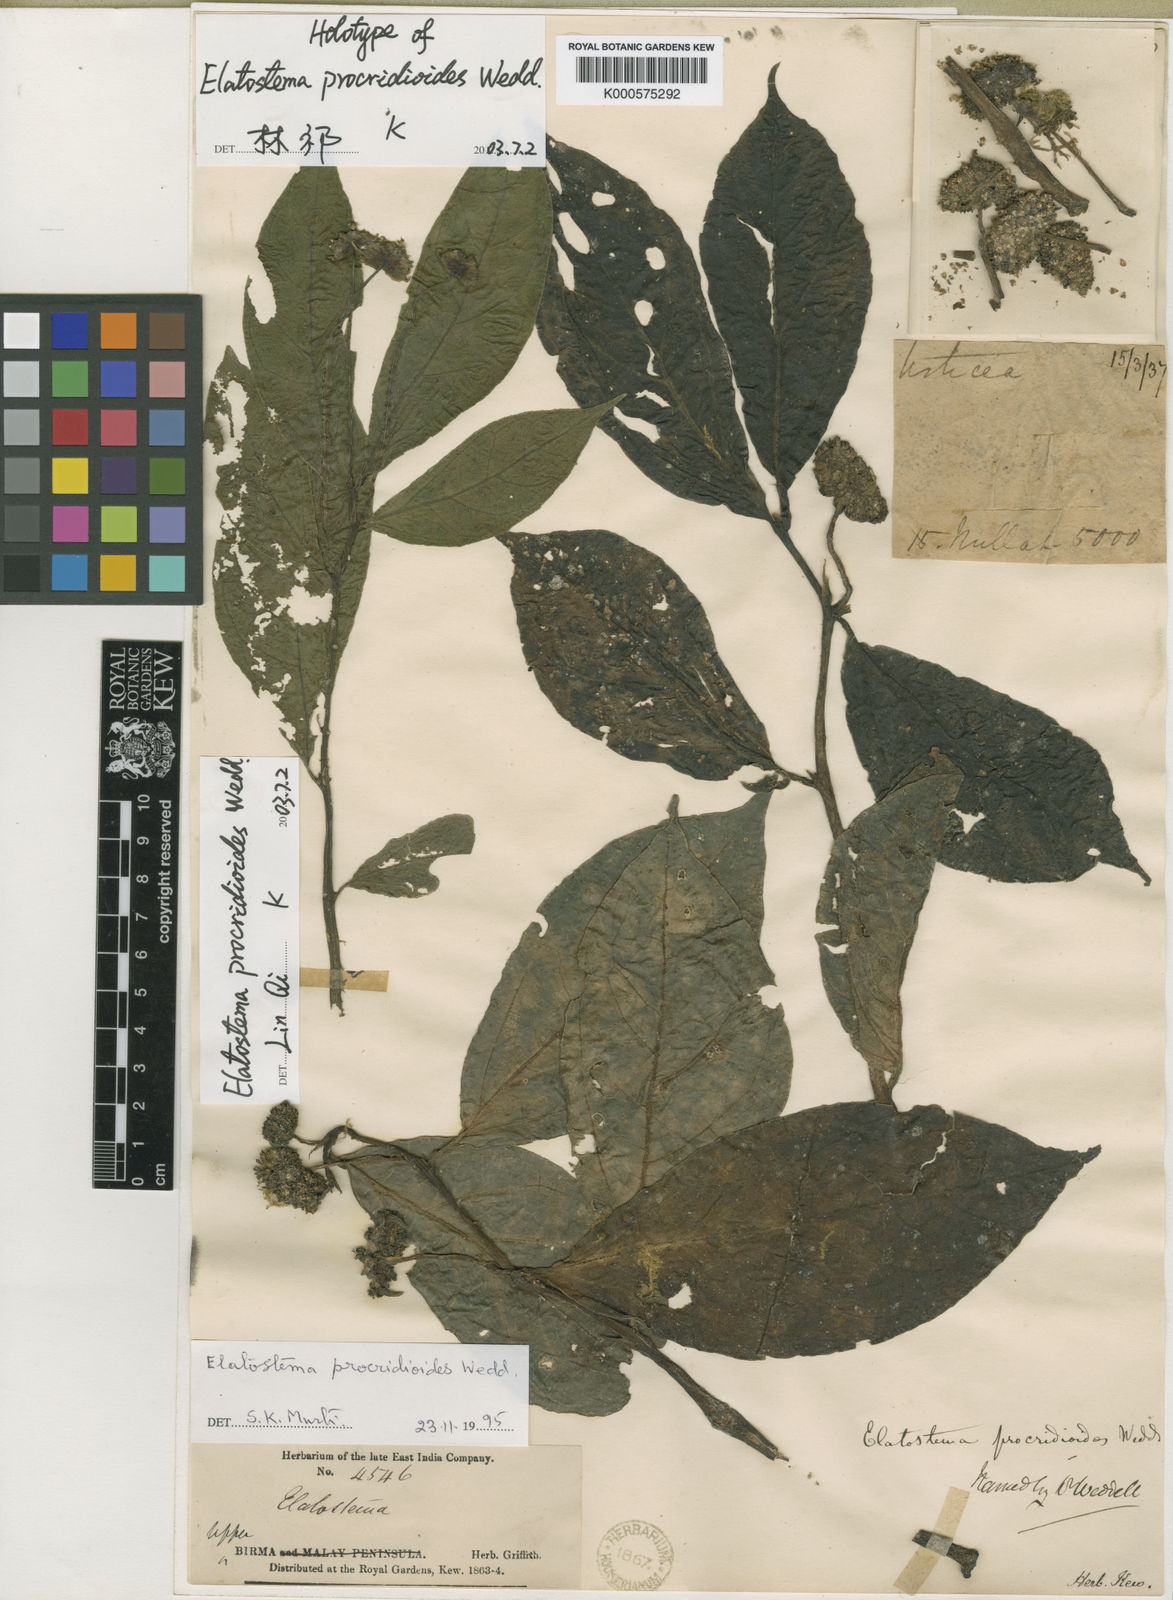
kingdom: Plantae
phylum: Tracheophyta
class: Magnoliopsida
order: Rosales
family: Urticaceae
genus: Elatostema
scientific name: Elatostema procridioides
